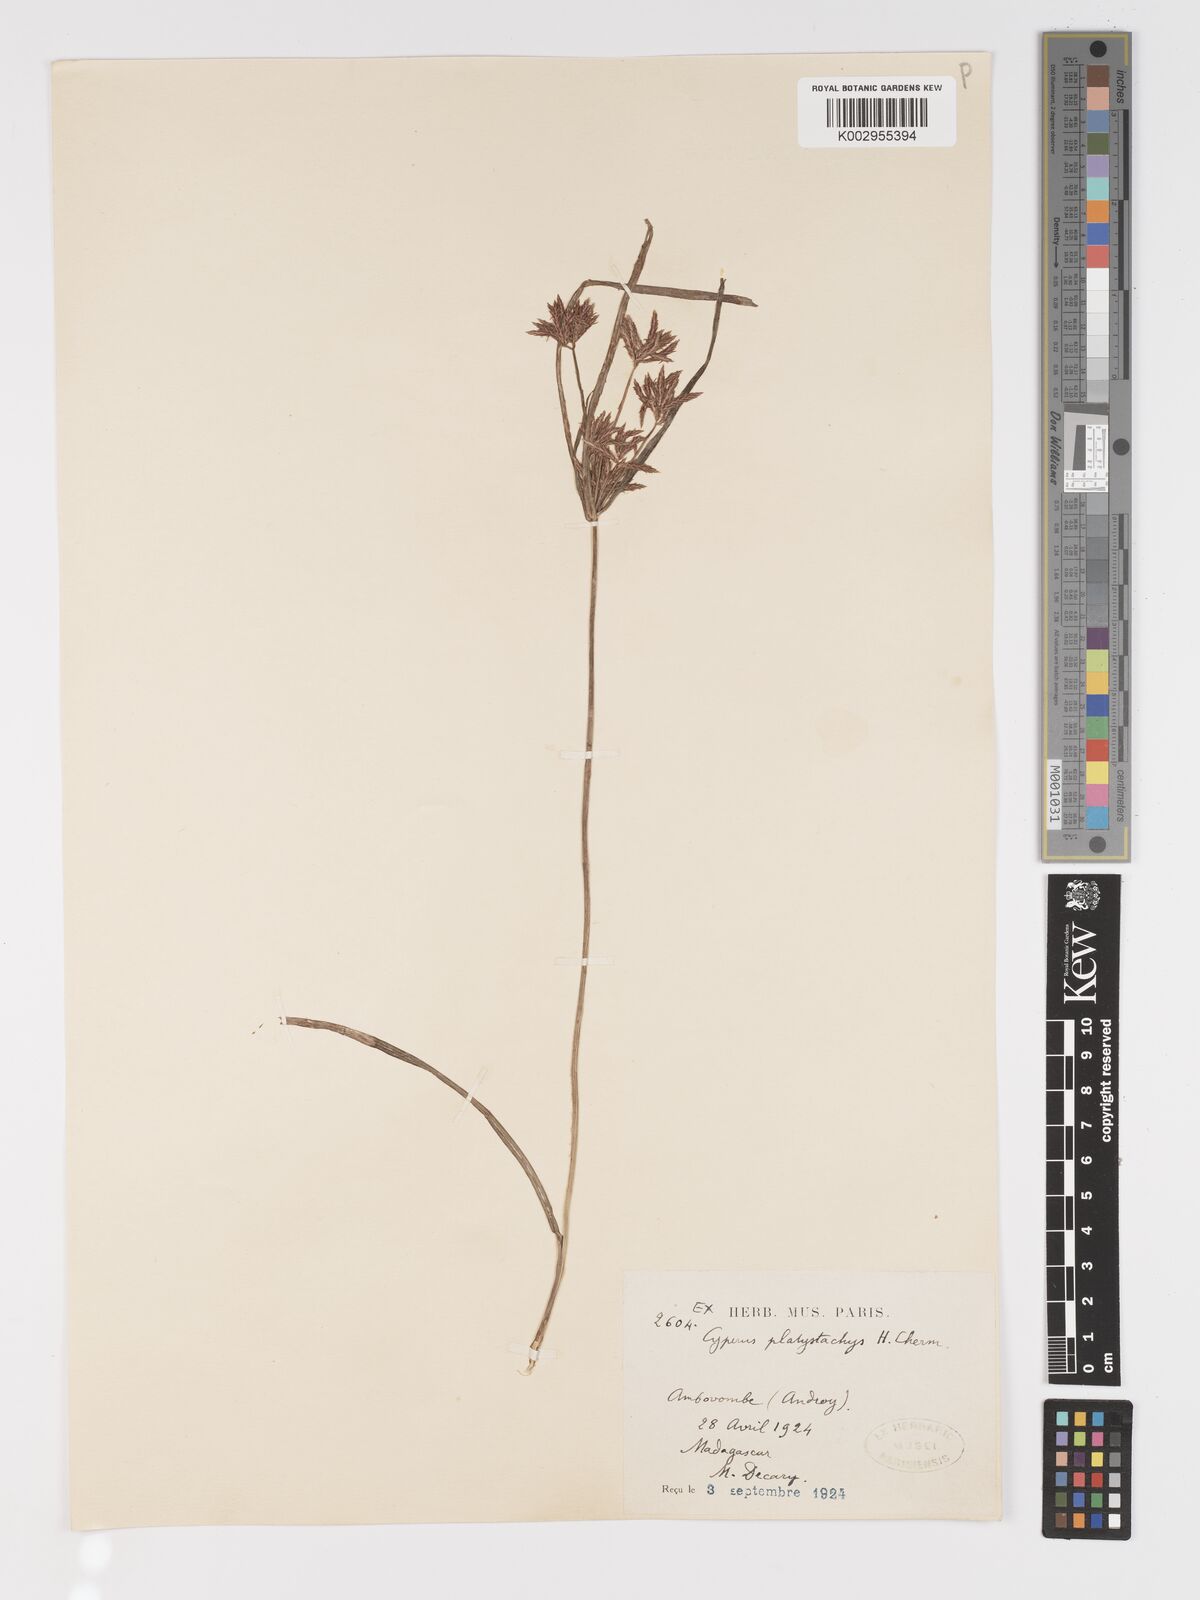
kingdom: Plantae
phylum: Tracheophyta
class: Liliopsida
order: Poales
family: Cyperaceae
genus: Cyperus
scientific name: Cyperus tuberosus
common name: Nut grass
